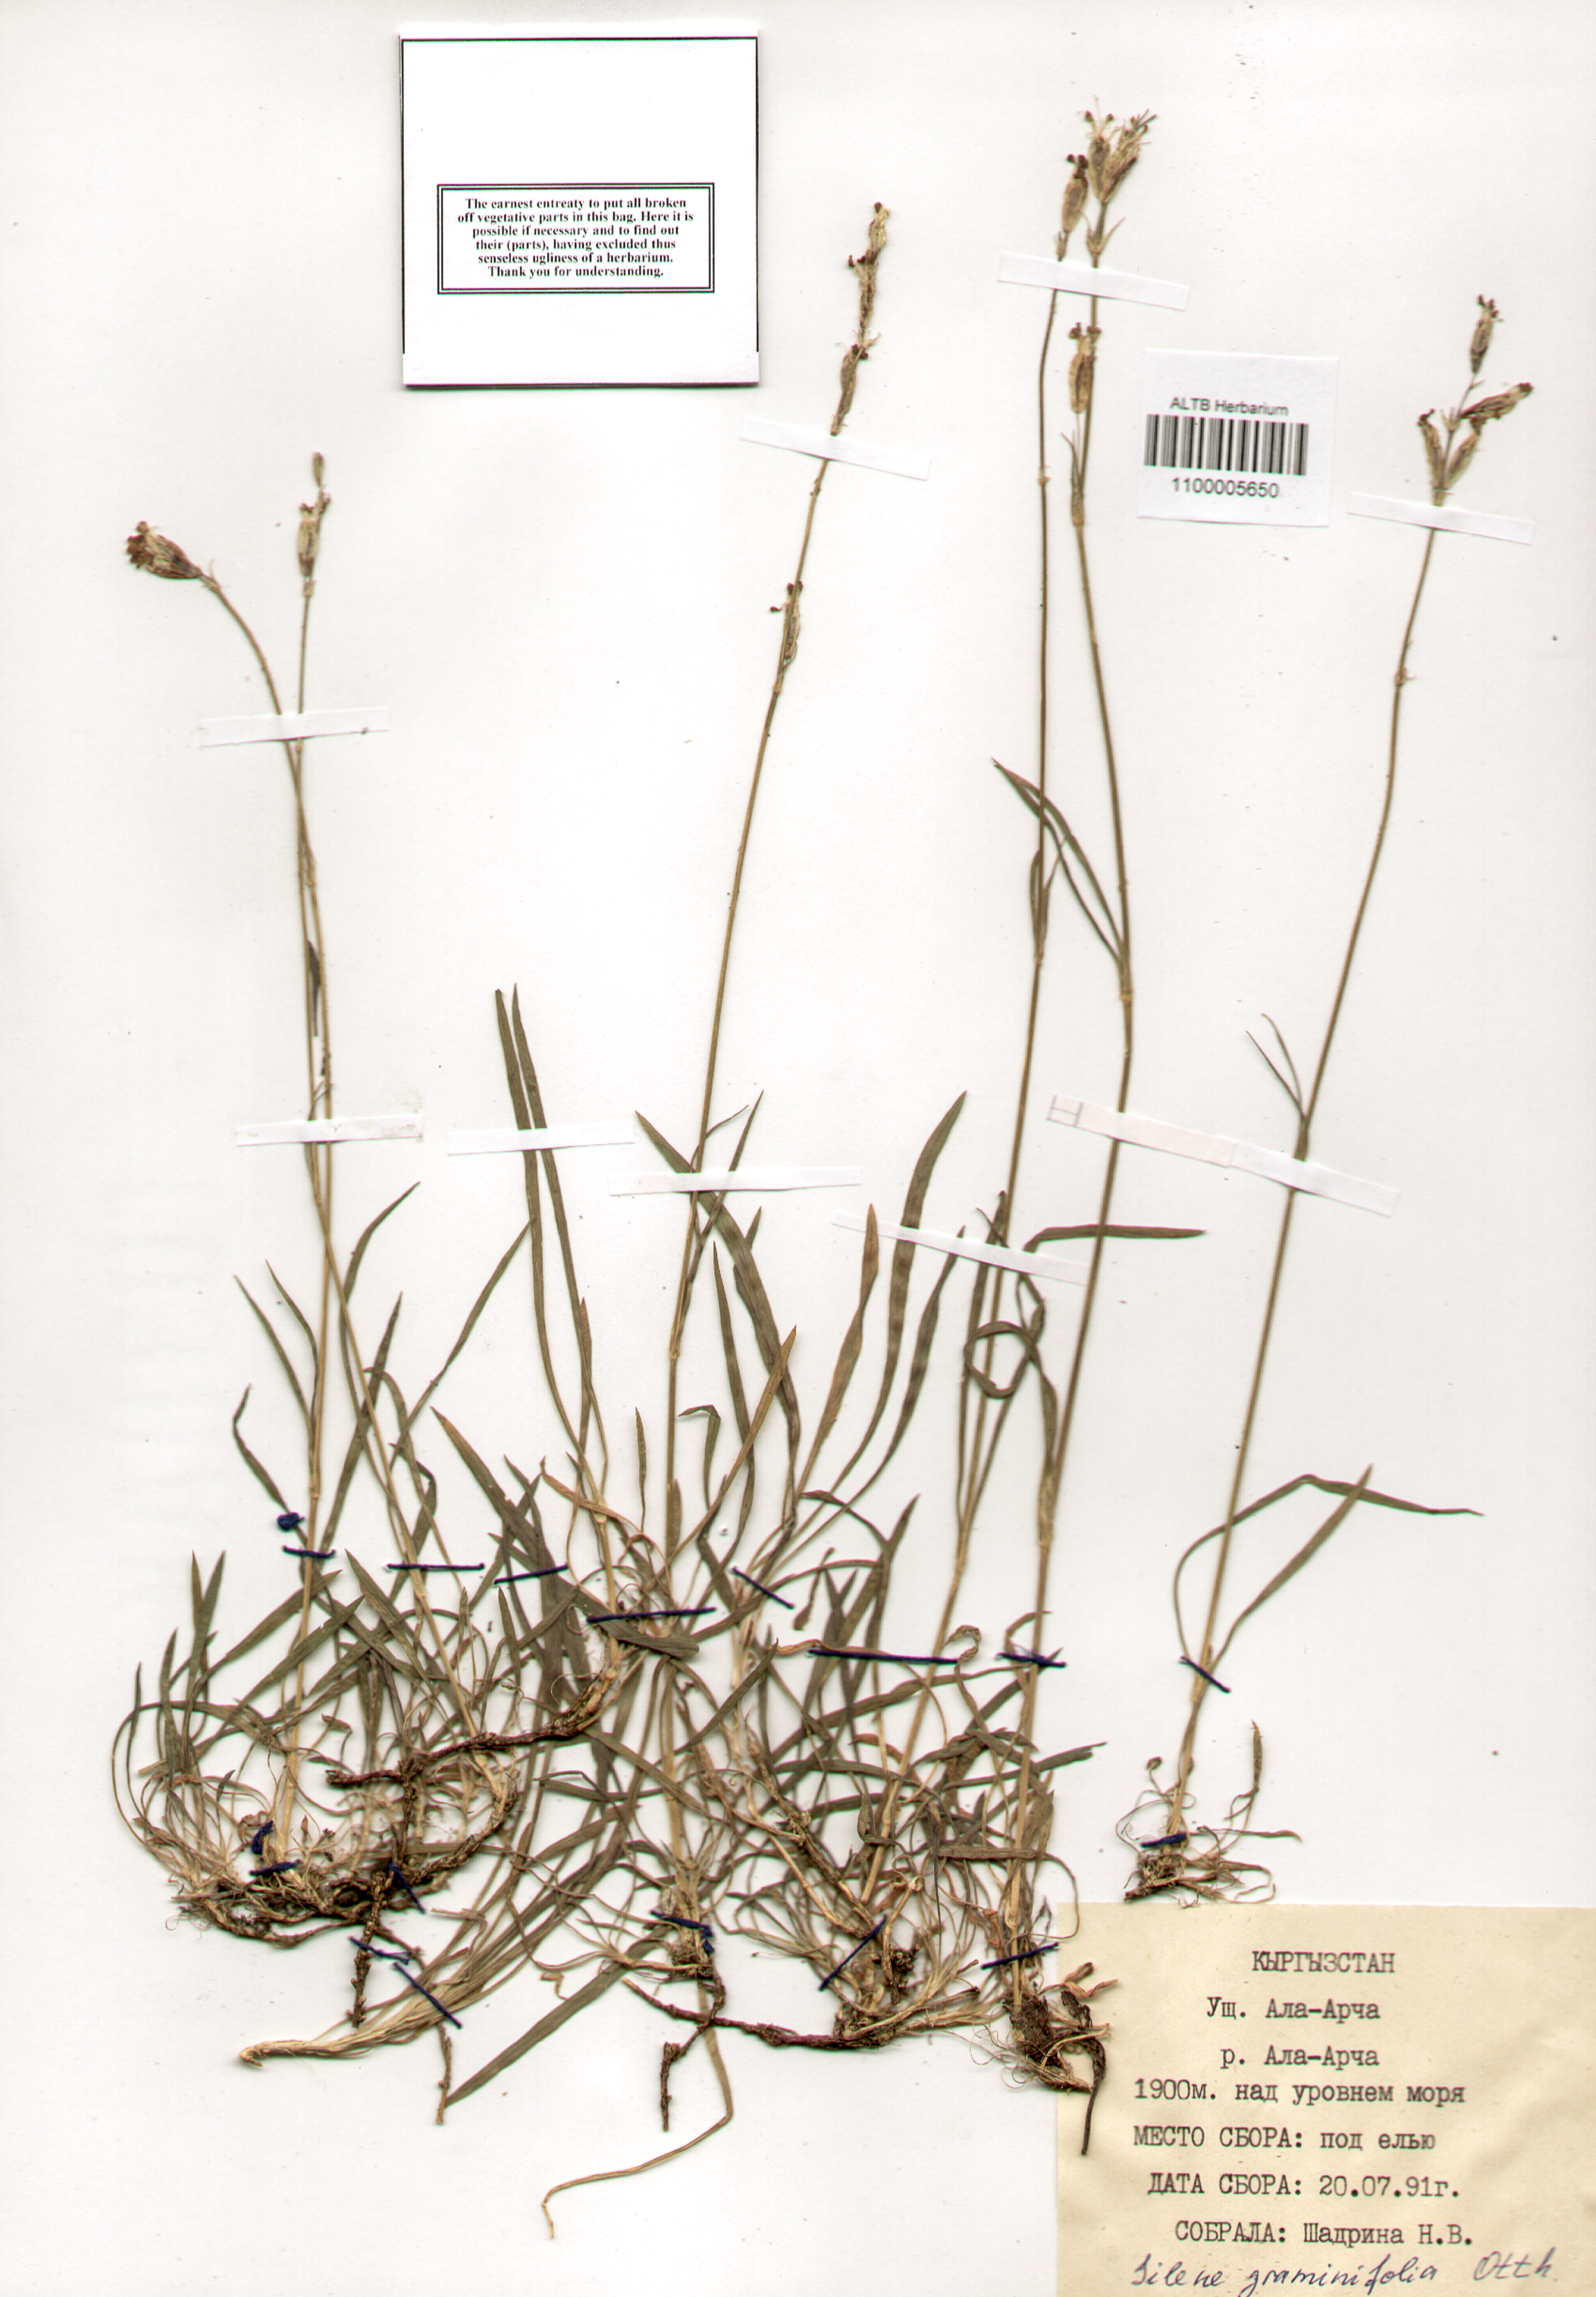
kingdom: Plantae
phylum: Tracheophyta
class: Magnoliopsida
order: Caryophyllales
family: Caryophyllaceae
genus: Silene
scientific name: Silene graminifolia
